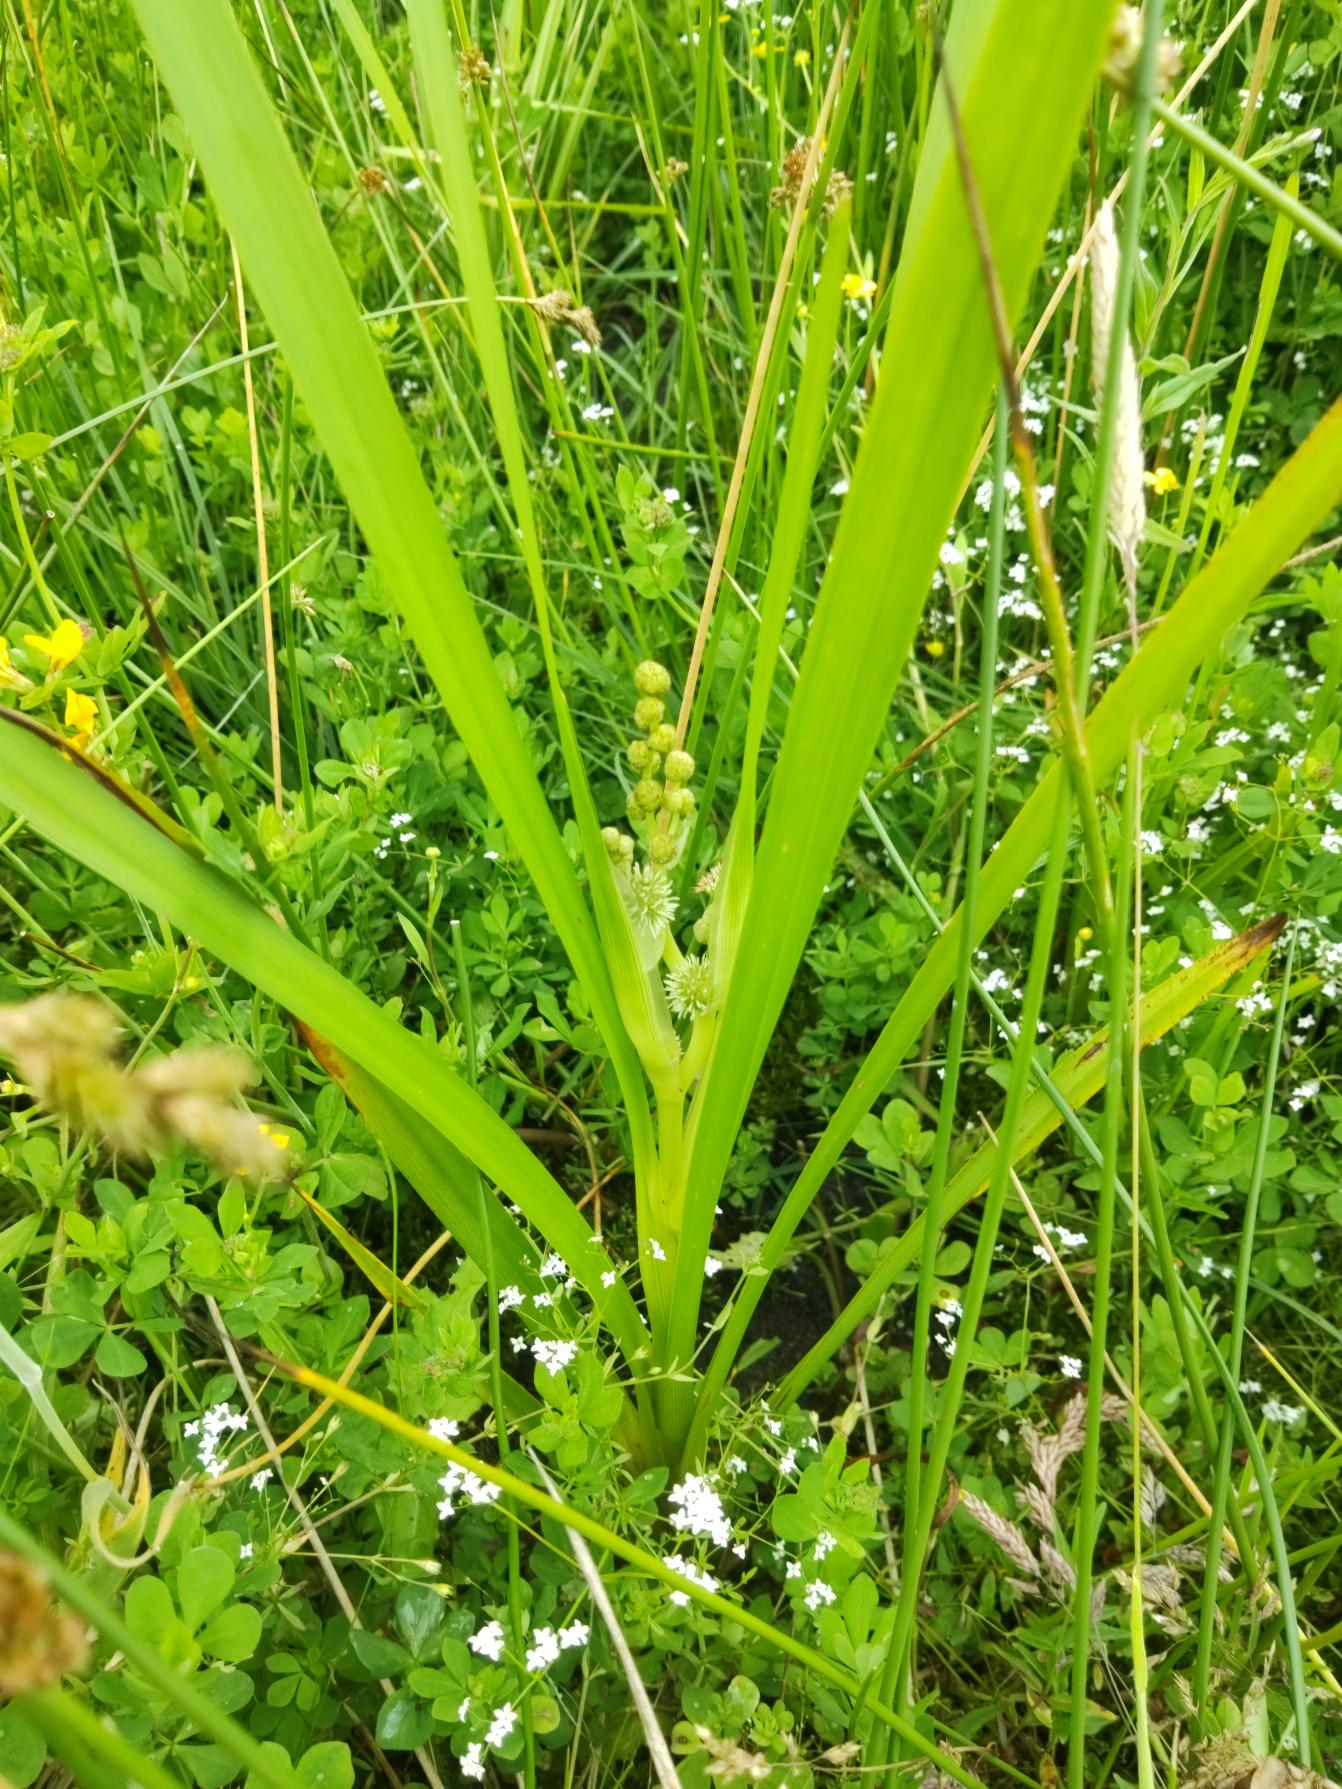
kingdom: Plantae
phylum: Tracheophyta
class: Liliopsida
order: Poales
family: Typhaceae
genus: Sparganium
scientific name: Sparganium erectum
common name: Grenet pindsvineknop
